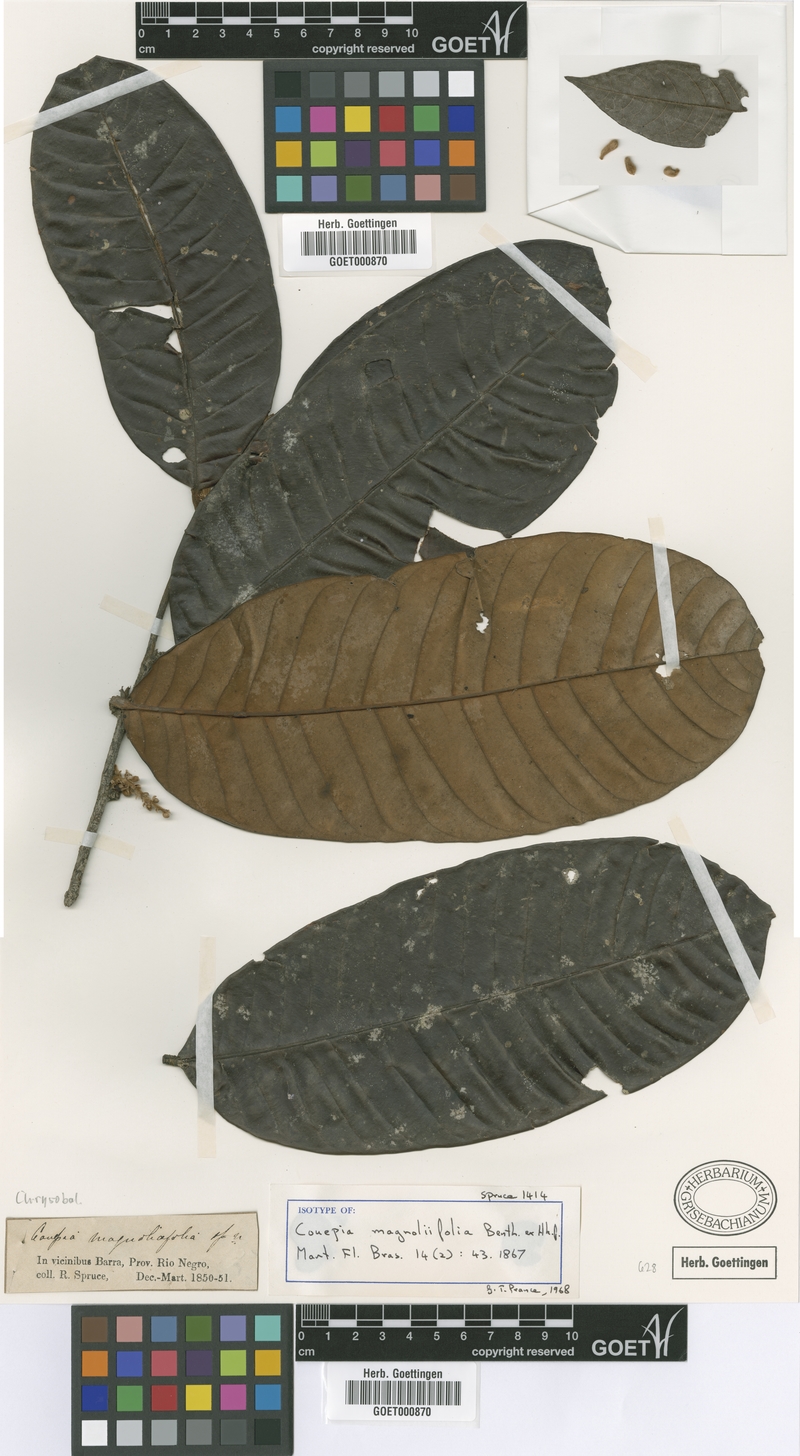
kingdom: Plantae
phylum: Tracheophyta
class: Magnoliopsida
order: Malpighiales
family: Chrysobalanaceae
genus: Couepia
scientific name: Couepia magnoliifolia
